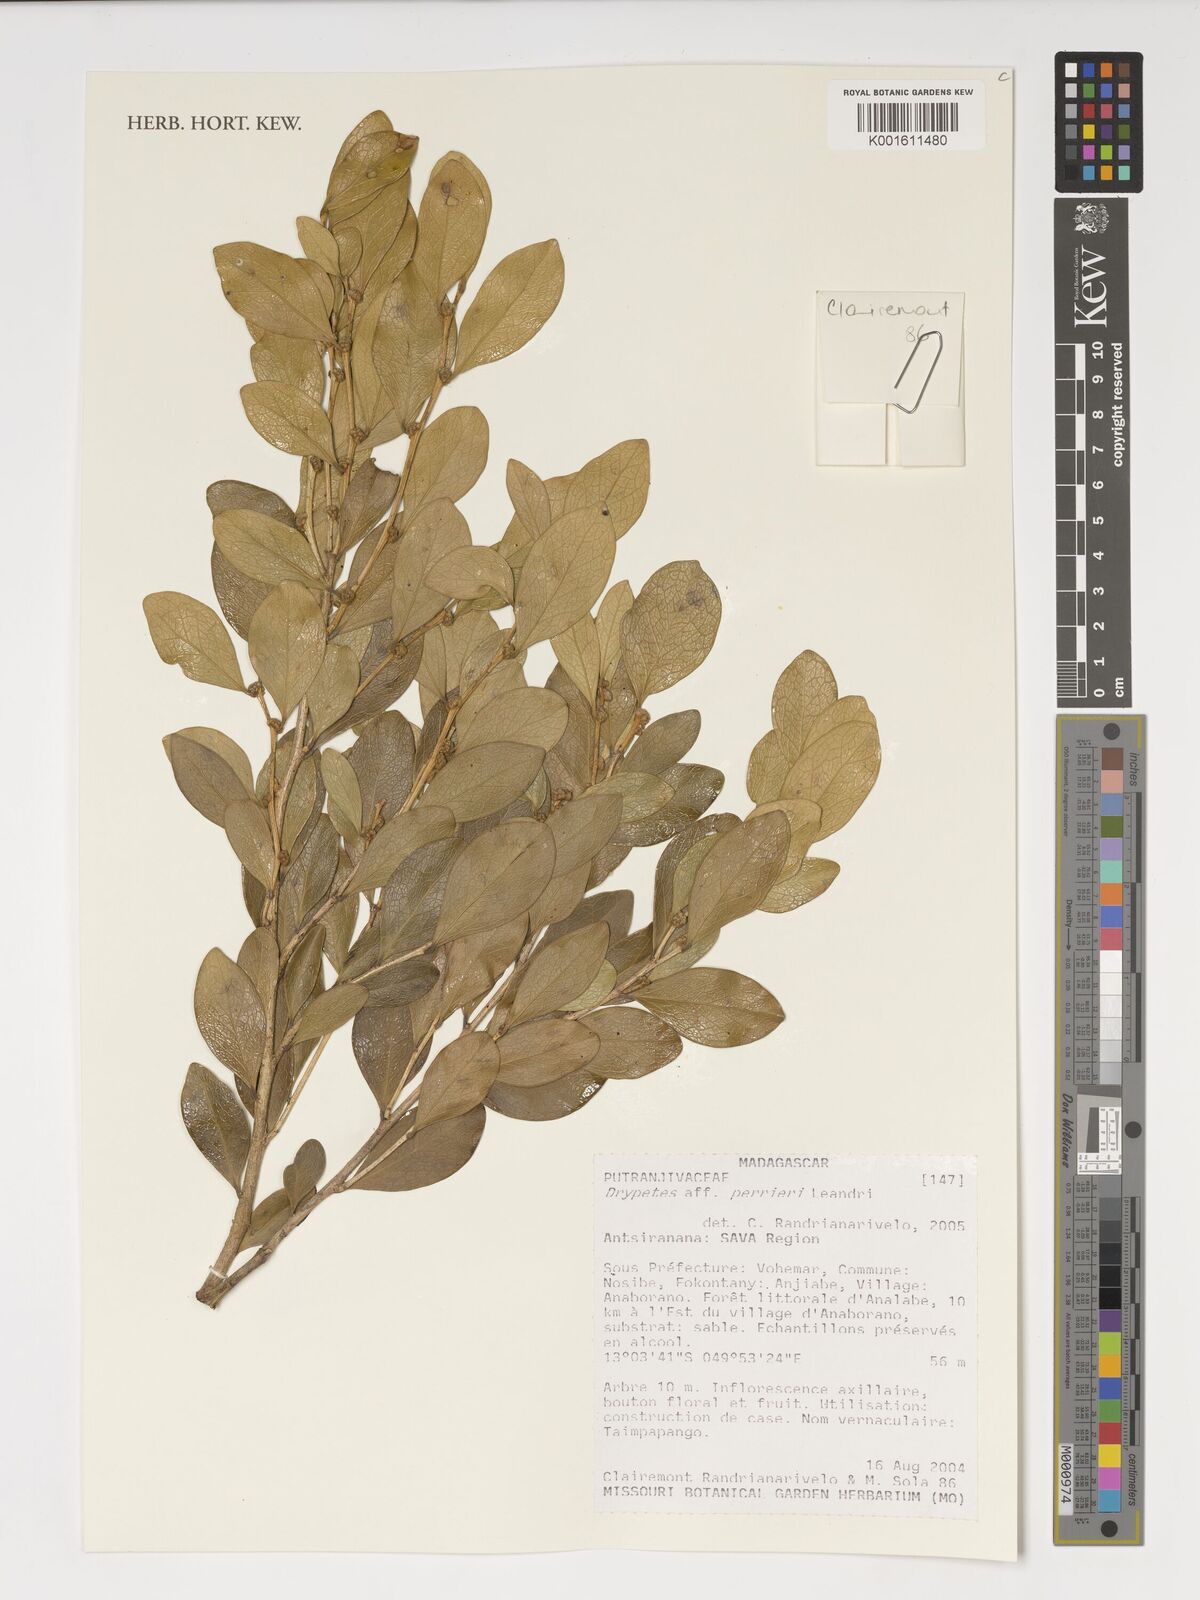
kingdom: Plantae
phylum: Tracheophyta
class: Magnoliopsida
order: Malpighiales
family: Putranjivaceae
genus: Drypetes
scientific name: Drypetes perrieri
